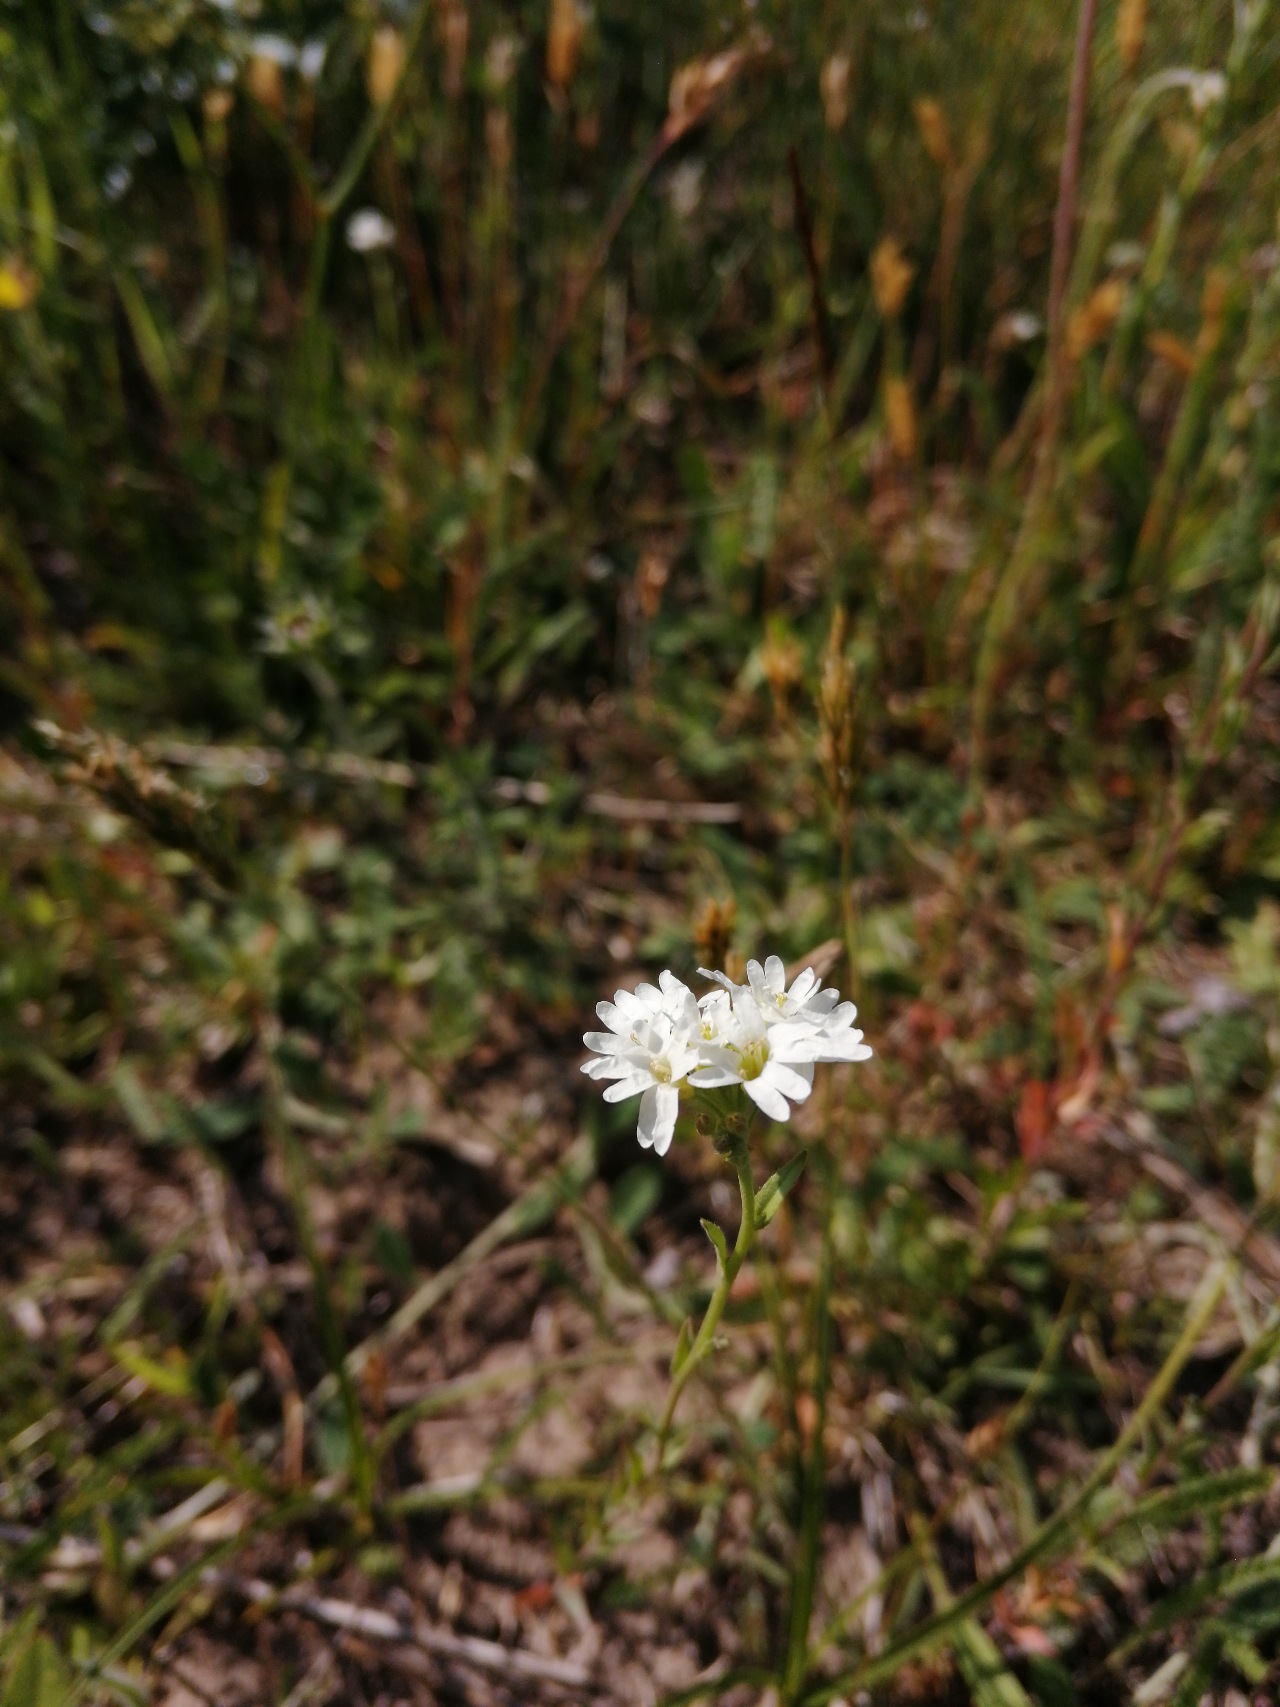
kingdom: Plantae
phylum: Tracheophyta
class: Magnoliopsida
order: Brassicales
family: Brassicaceae
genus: Berteroa
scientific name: Berteroa incana
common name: Kløvplade
